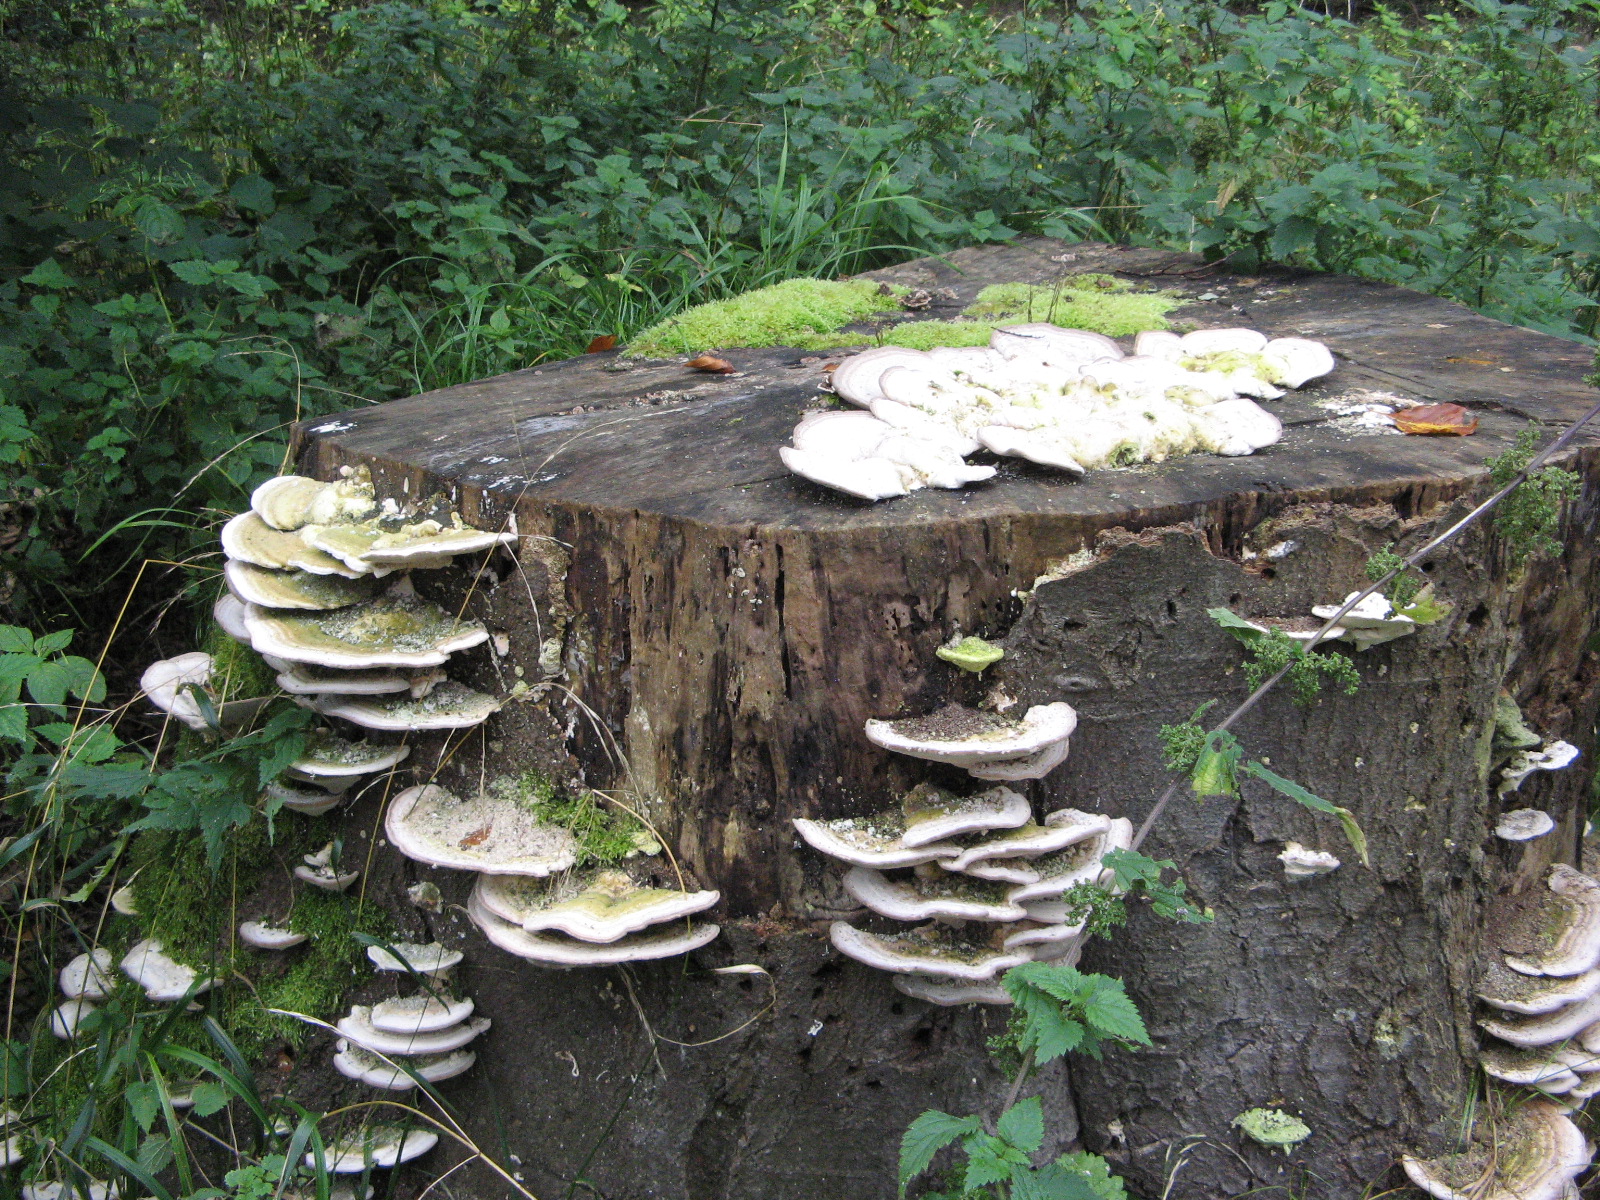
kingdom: Fungi
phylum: Basidiomycota
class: Agaricomycetes
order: Polyporales
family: Polyporaceae
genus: Trametes
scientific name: Trametes gibbosa
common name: puklet læderporesvamp
